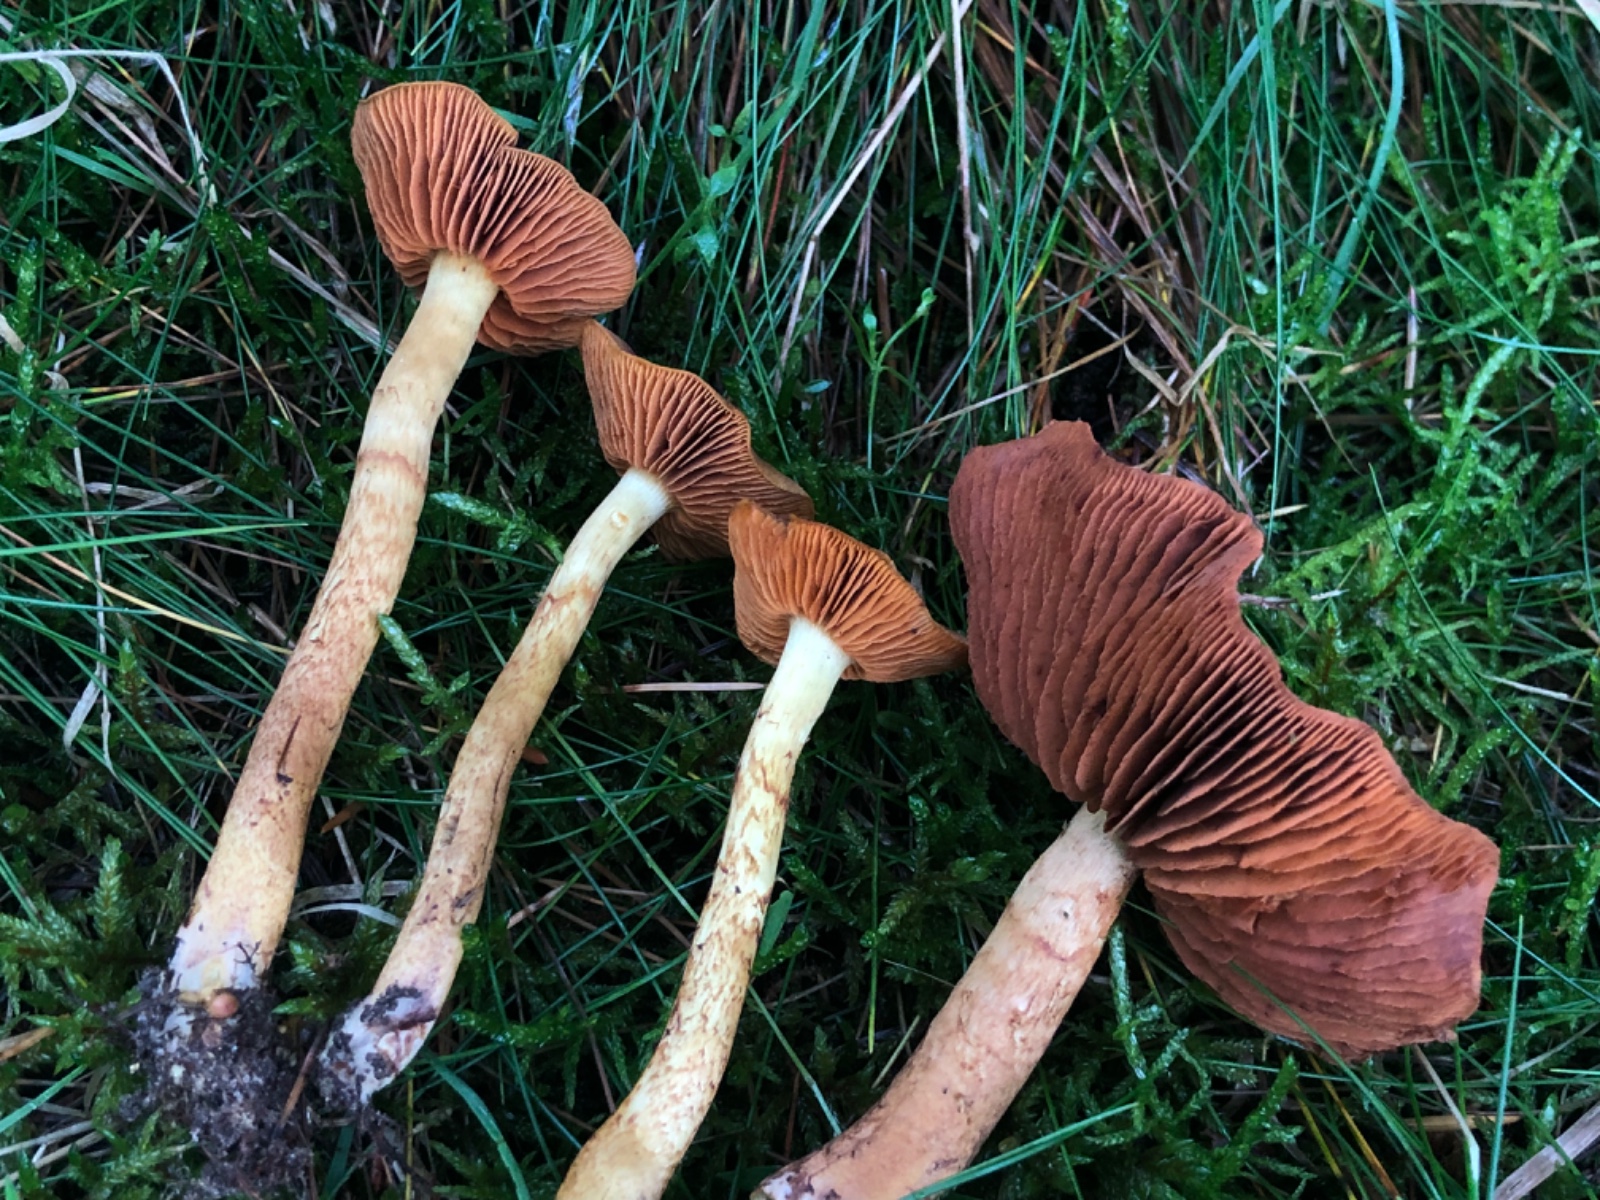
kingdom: Fungi
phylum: Basidiomycota
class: Agaricomycetes
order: Agaricales
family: Cortinariaceae
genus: Cortinarius
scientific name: Cortinarius
